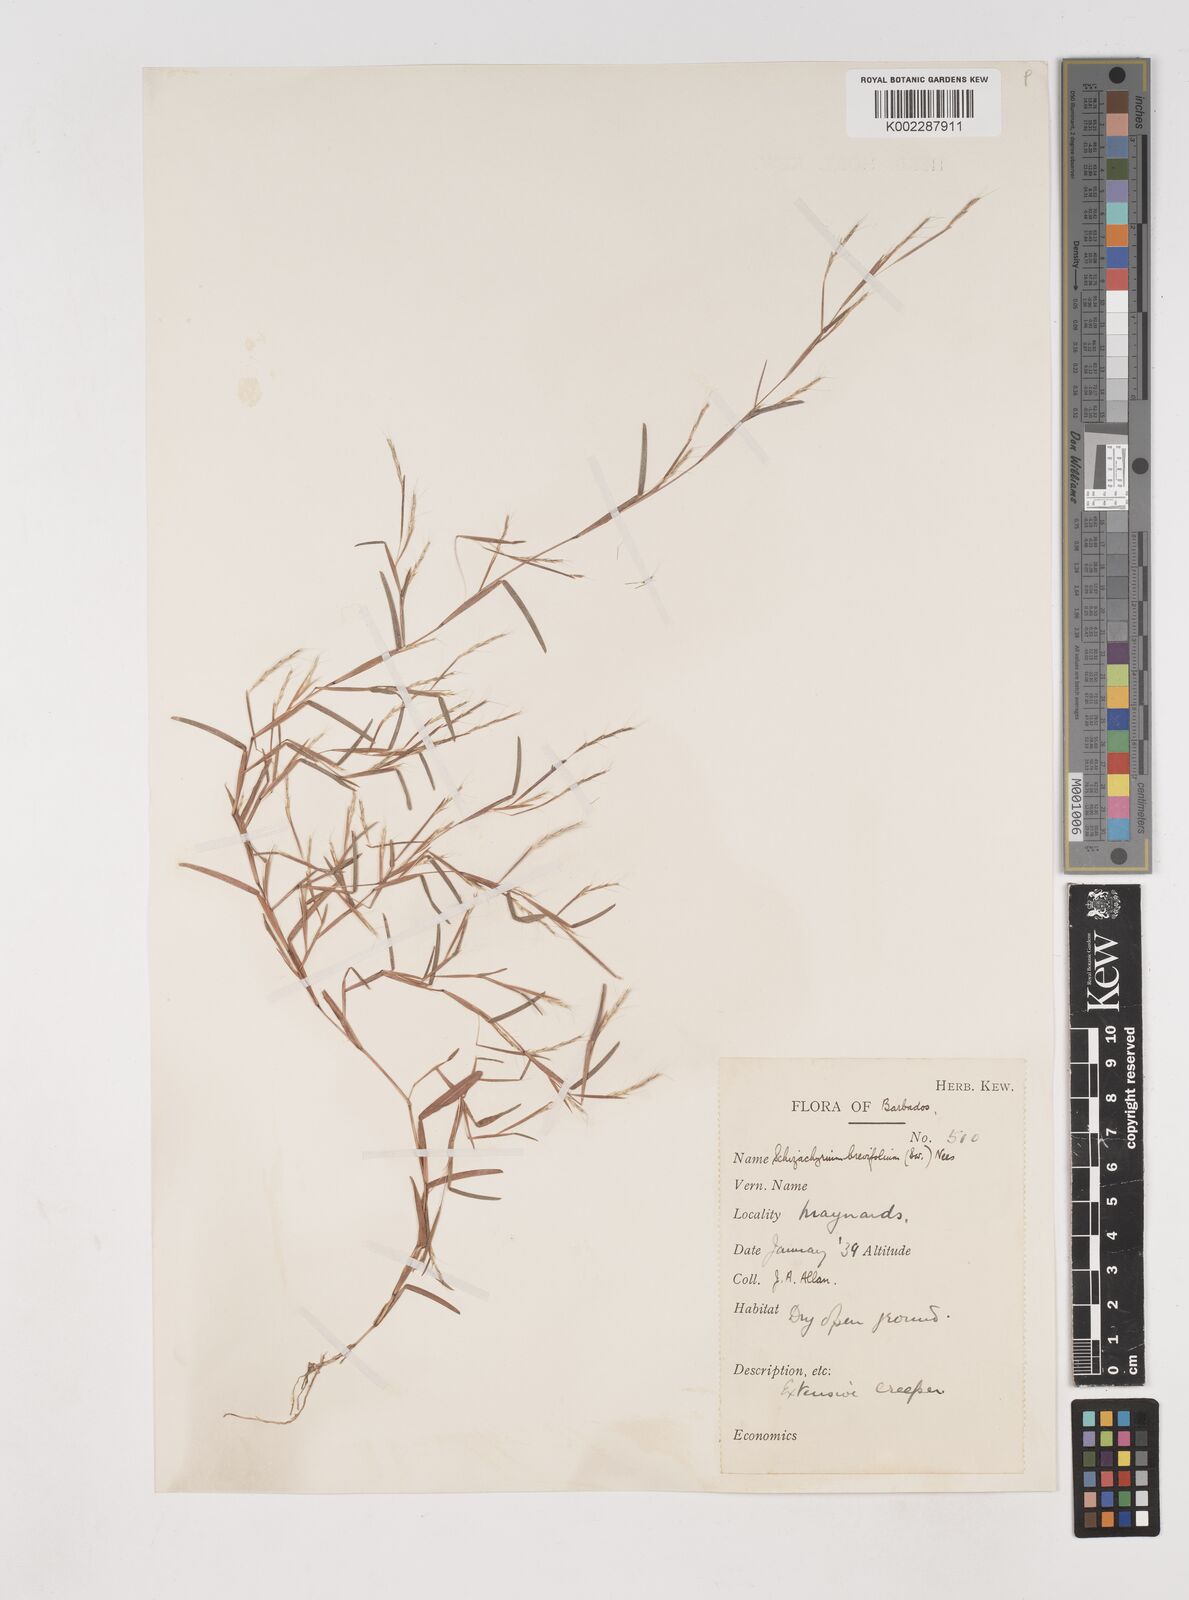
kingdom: Plantae
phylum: Tracheophyta
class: Liliopsida
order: Poales
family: Poaceae
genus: Schizachyrium
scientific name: Schizachyrium brevifolium
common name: Serillo dulce
